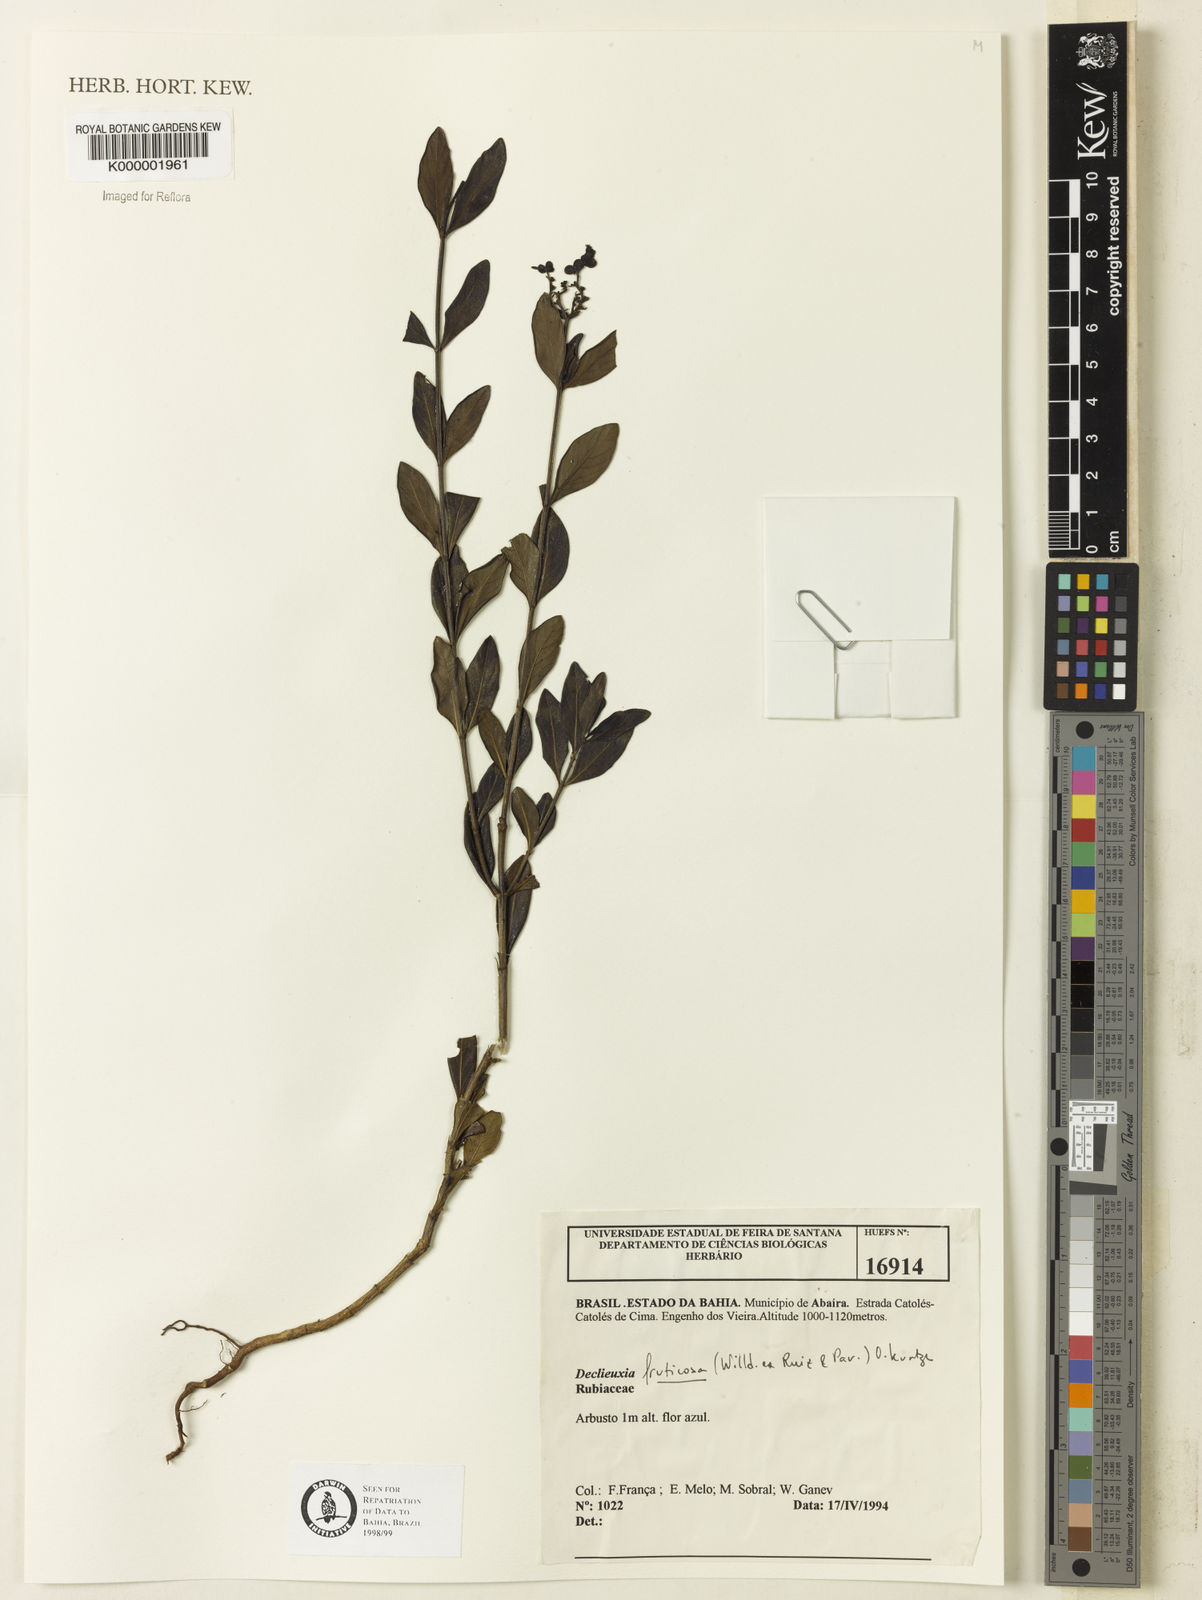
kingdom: Plantae
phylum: Tracheophyta
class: Magnoliopsida
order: Gentianales
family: Rubiaceae
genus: Declieuxia
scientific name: Declieuxia fruticosa
